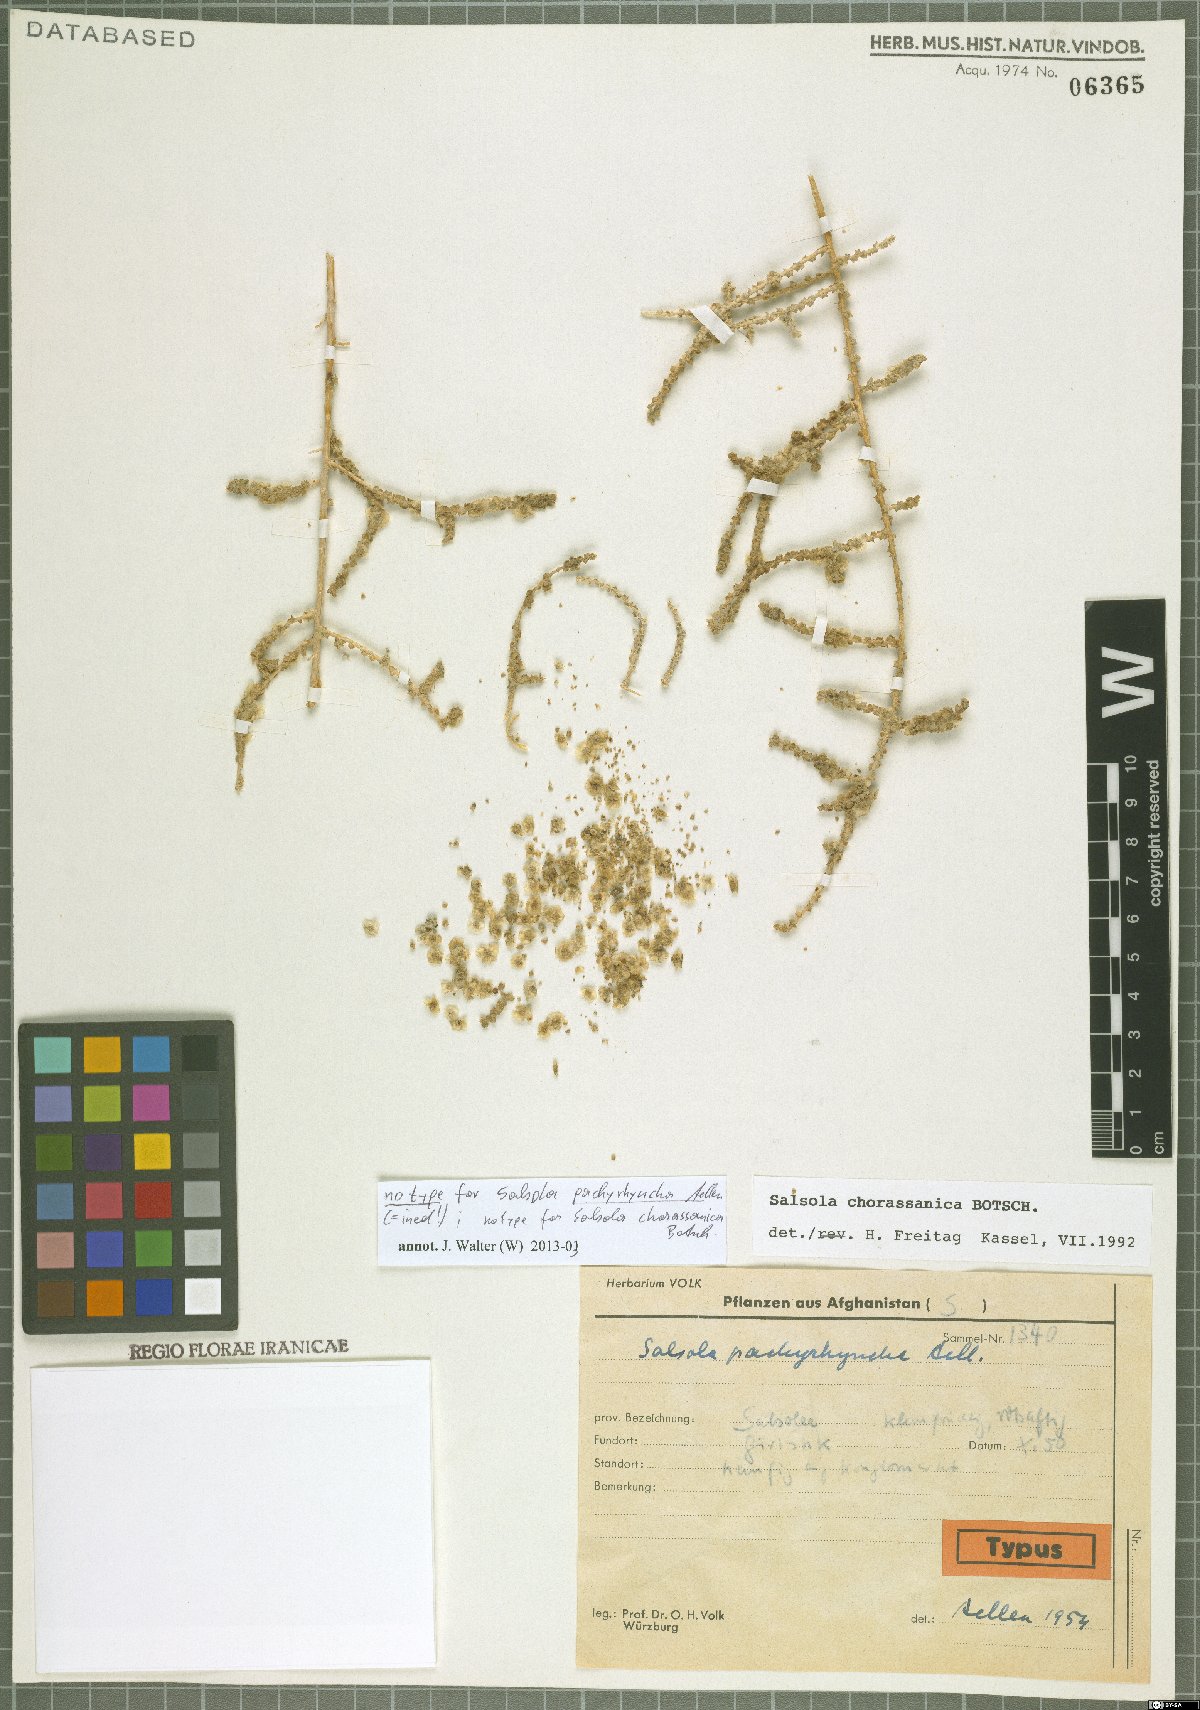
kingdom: Plantae
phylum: Tracheophyta
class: Magnoliopsida
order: Caryophyllales
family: Amaranthaceae
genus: Caroxylon
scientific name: Caroxylon chorassanicum
